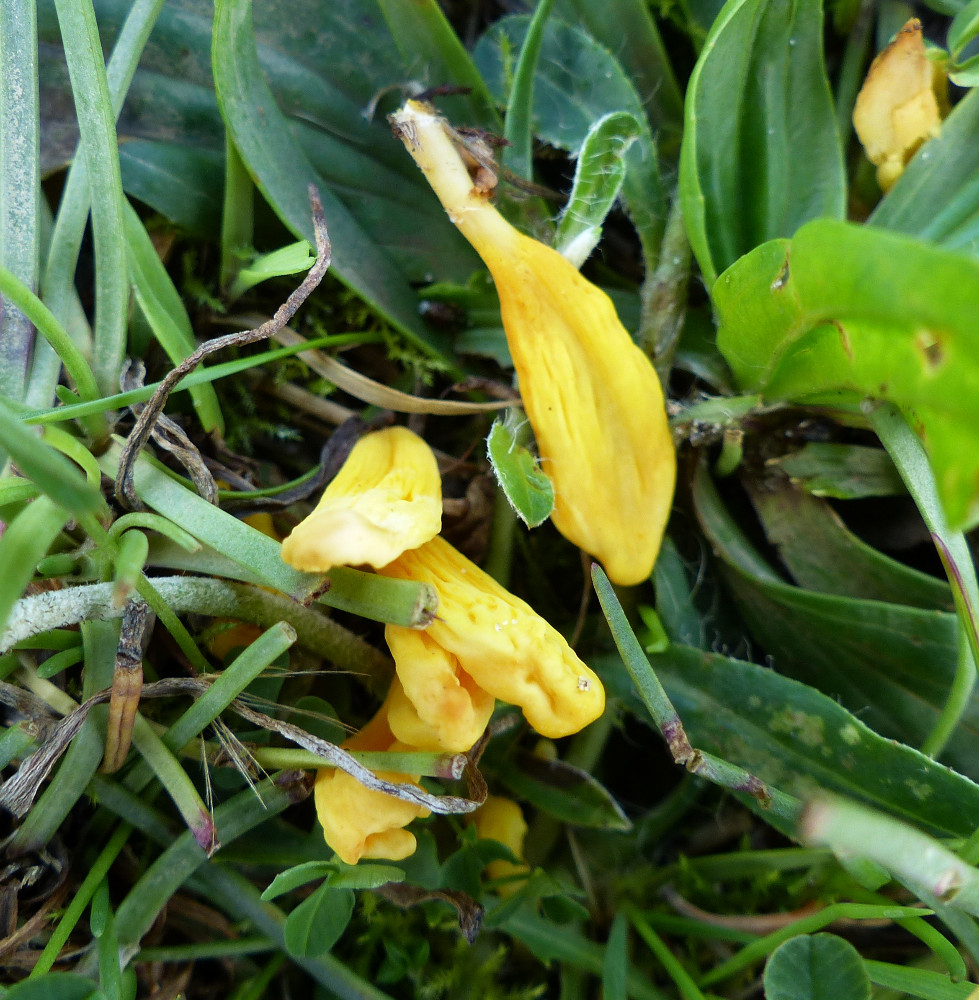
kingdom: Fungi
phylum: Basidiomycota
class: Agaricomycetes
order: Agaricales
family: Clavariaceae
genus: Clavulinopsis
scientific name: Clavulinopsis
